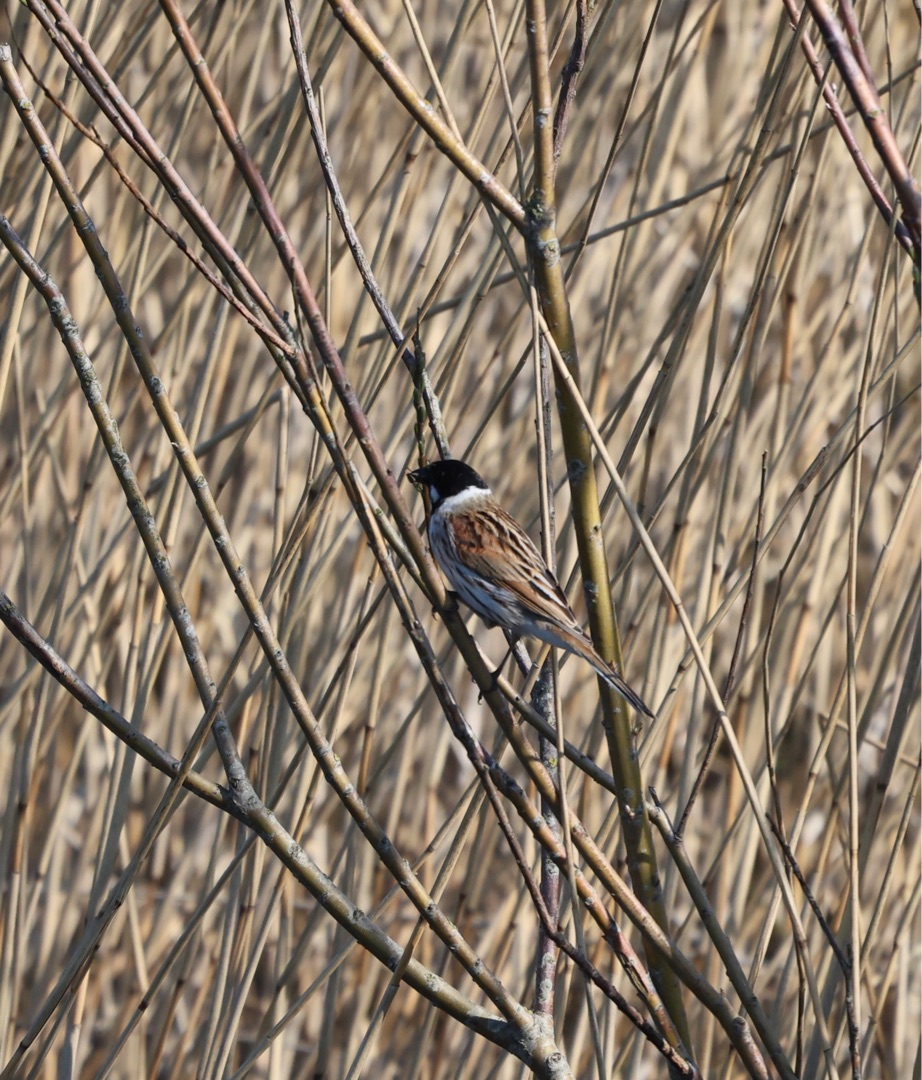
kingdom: Animalia
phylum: Chordata
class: Aves
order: Passeriformes
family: Emberizidae
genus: Emberiza
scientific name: Emberiza schoeniclus
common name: Rørspurv
